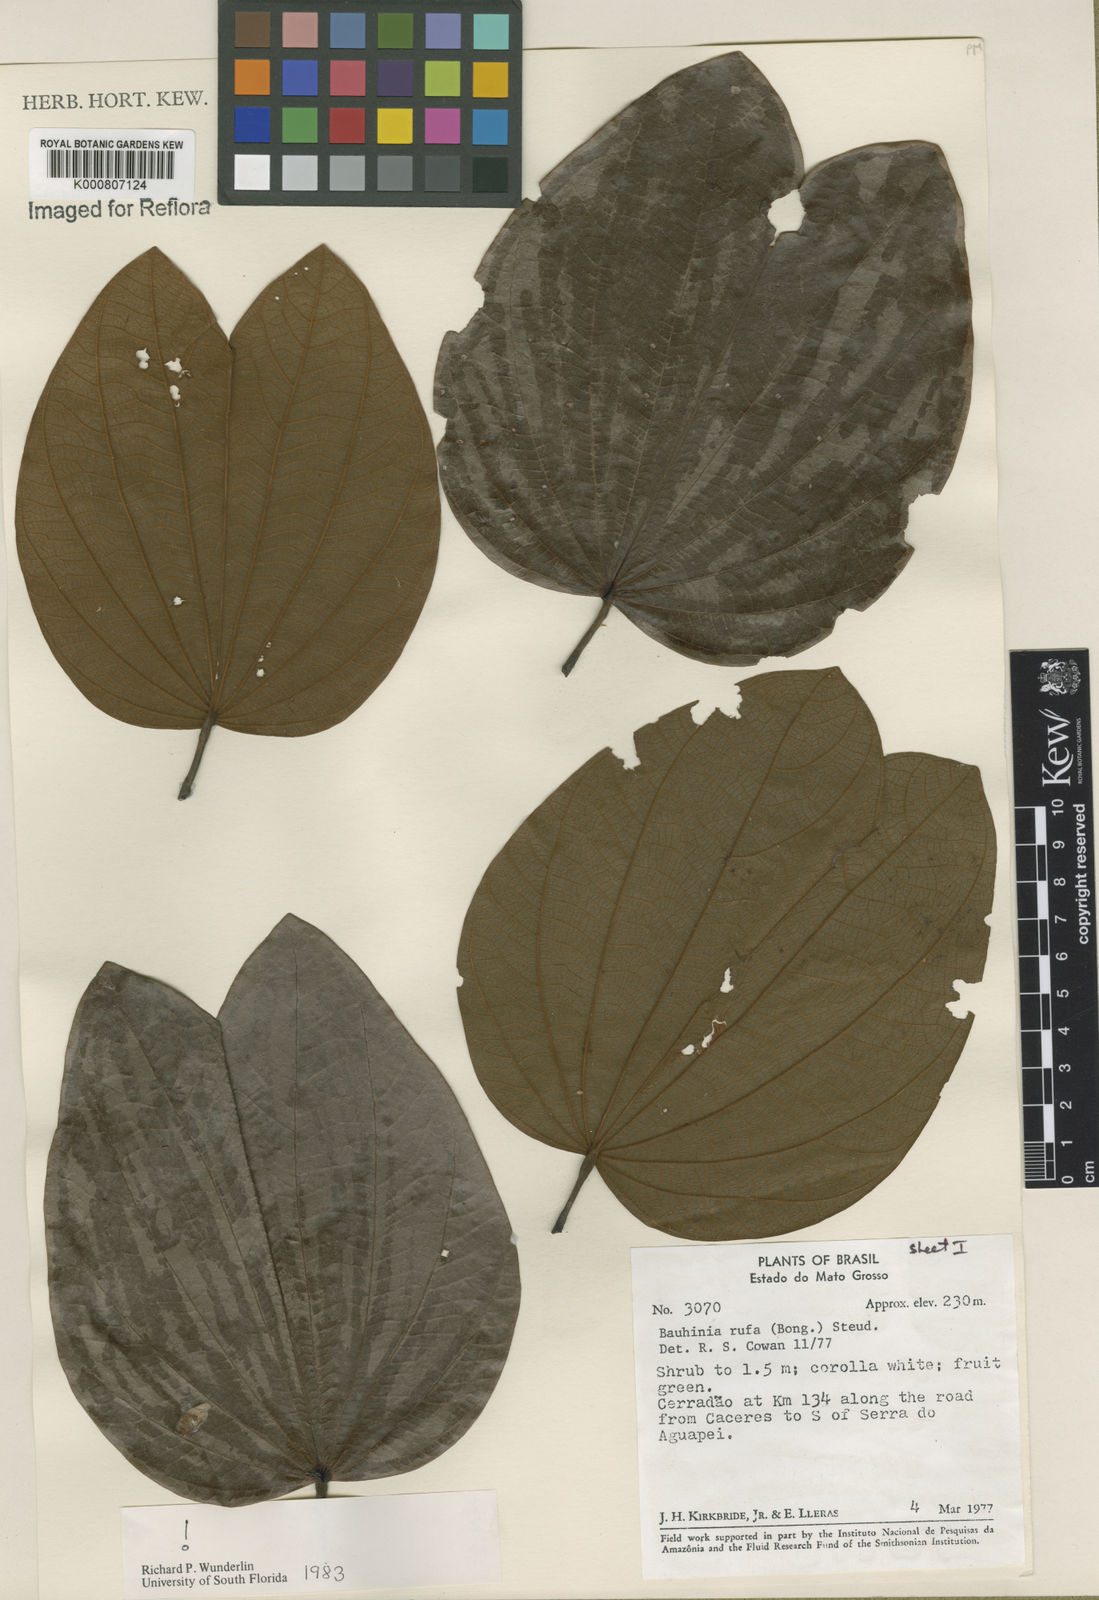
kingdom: Plantae
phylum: Tracheophyta
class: Magnoliopsida
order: Fabales
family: Fabaceae
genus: Bauhinia
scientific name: Bauhinia rufa
